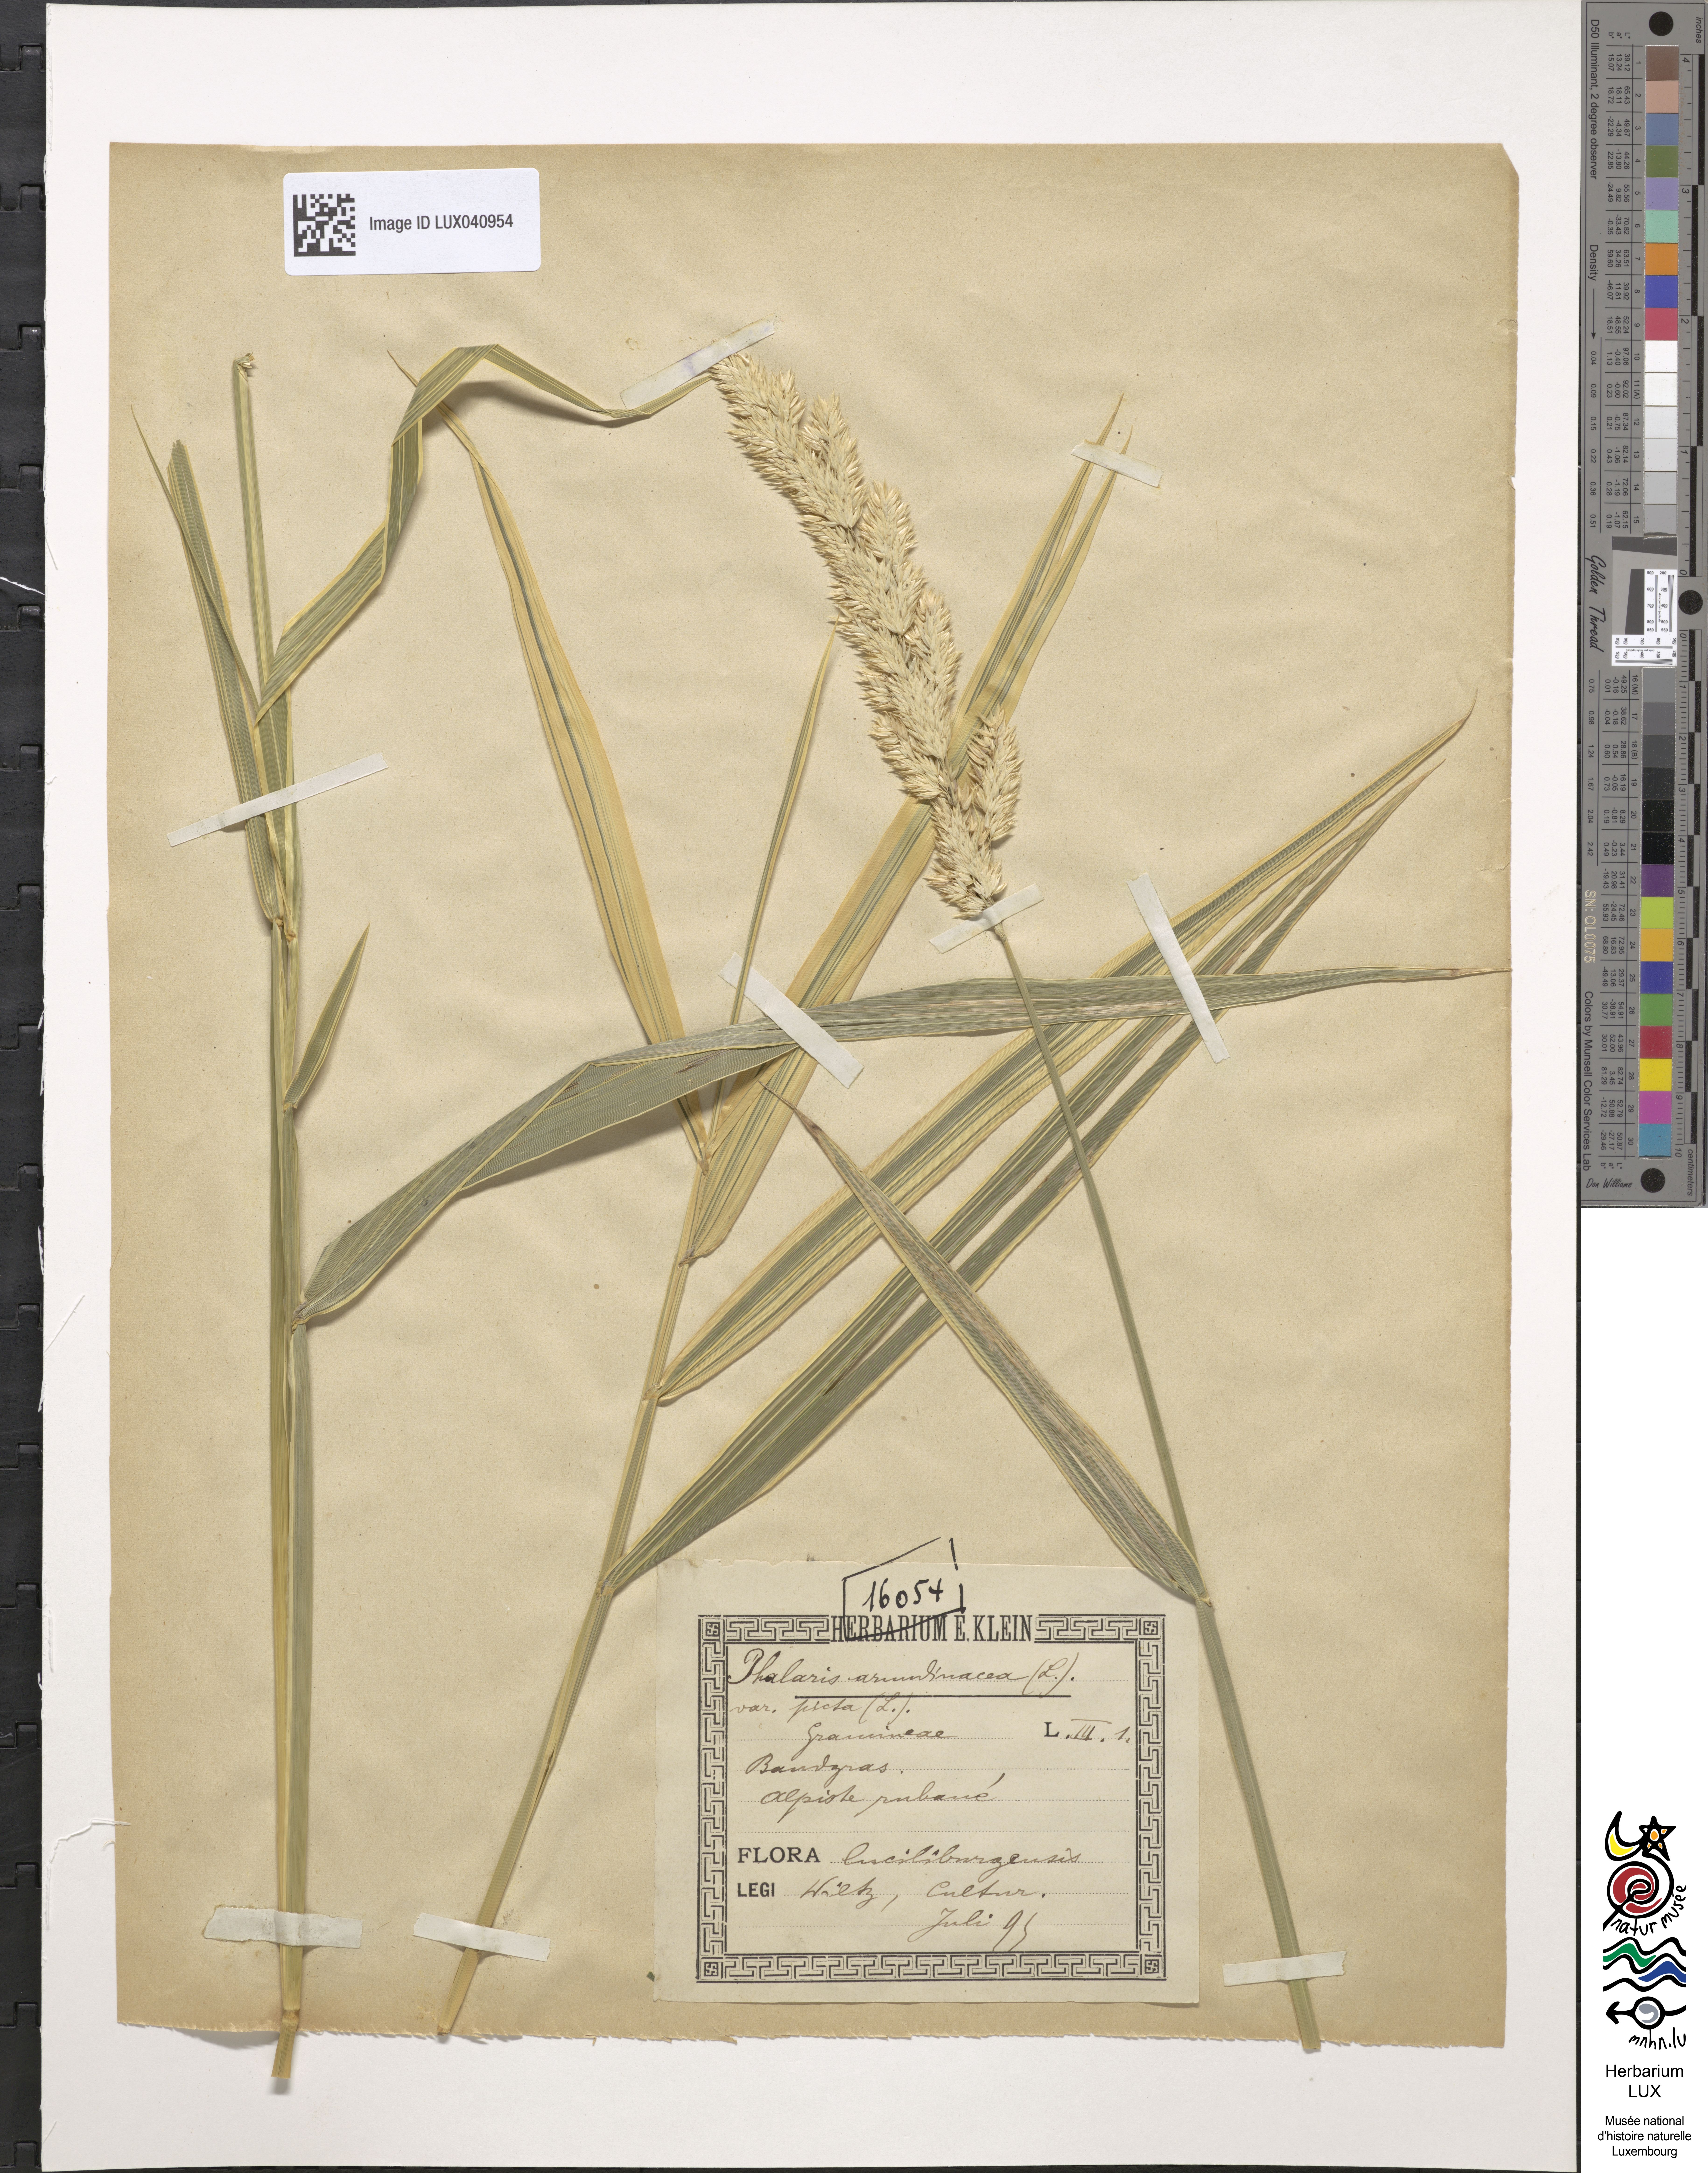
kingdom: Plantae
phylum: Tracheophyta
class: Liliopsida
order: Poales
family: Poaceae
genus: Phalaris
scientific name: Phalaris arundinacea
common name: Reed canary-grass
